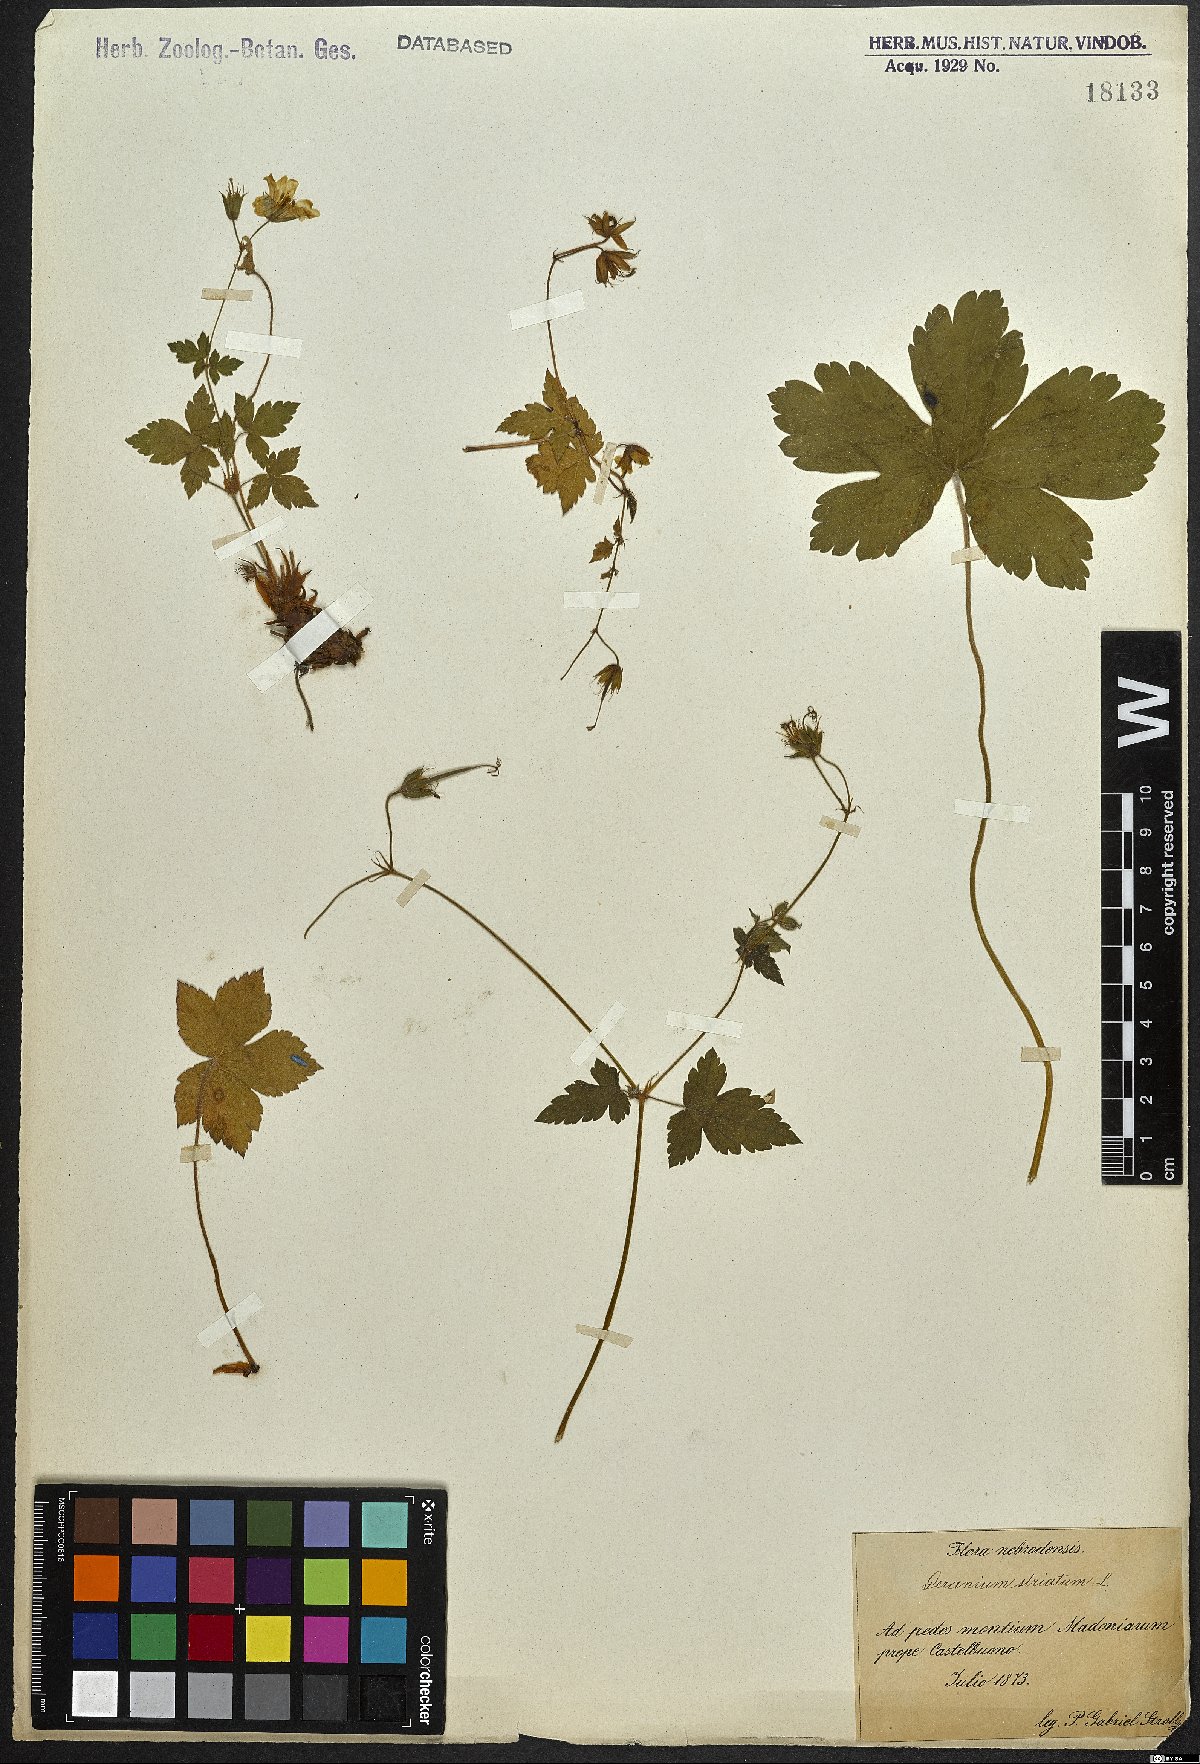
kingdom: Plantae
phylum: Tracheophyta
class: Magnoliopsida
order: Geraniales
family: Geraniaceae
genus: Geranium
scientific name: Geranium versicolor
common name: Pencilled crane's-bill
